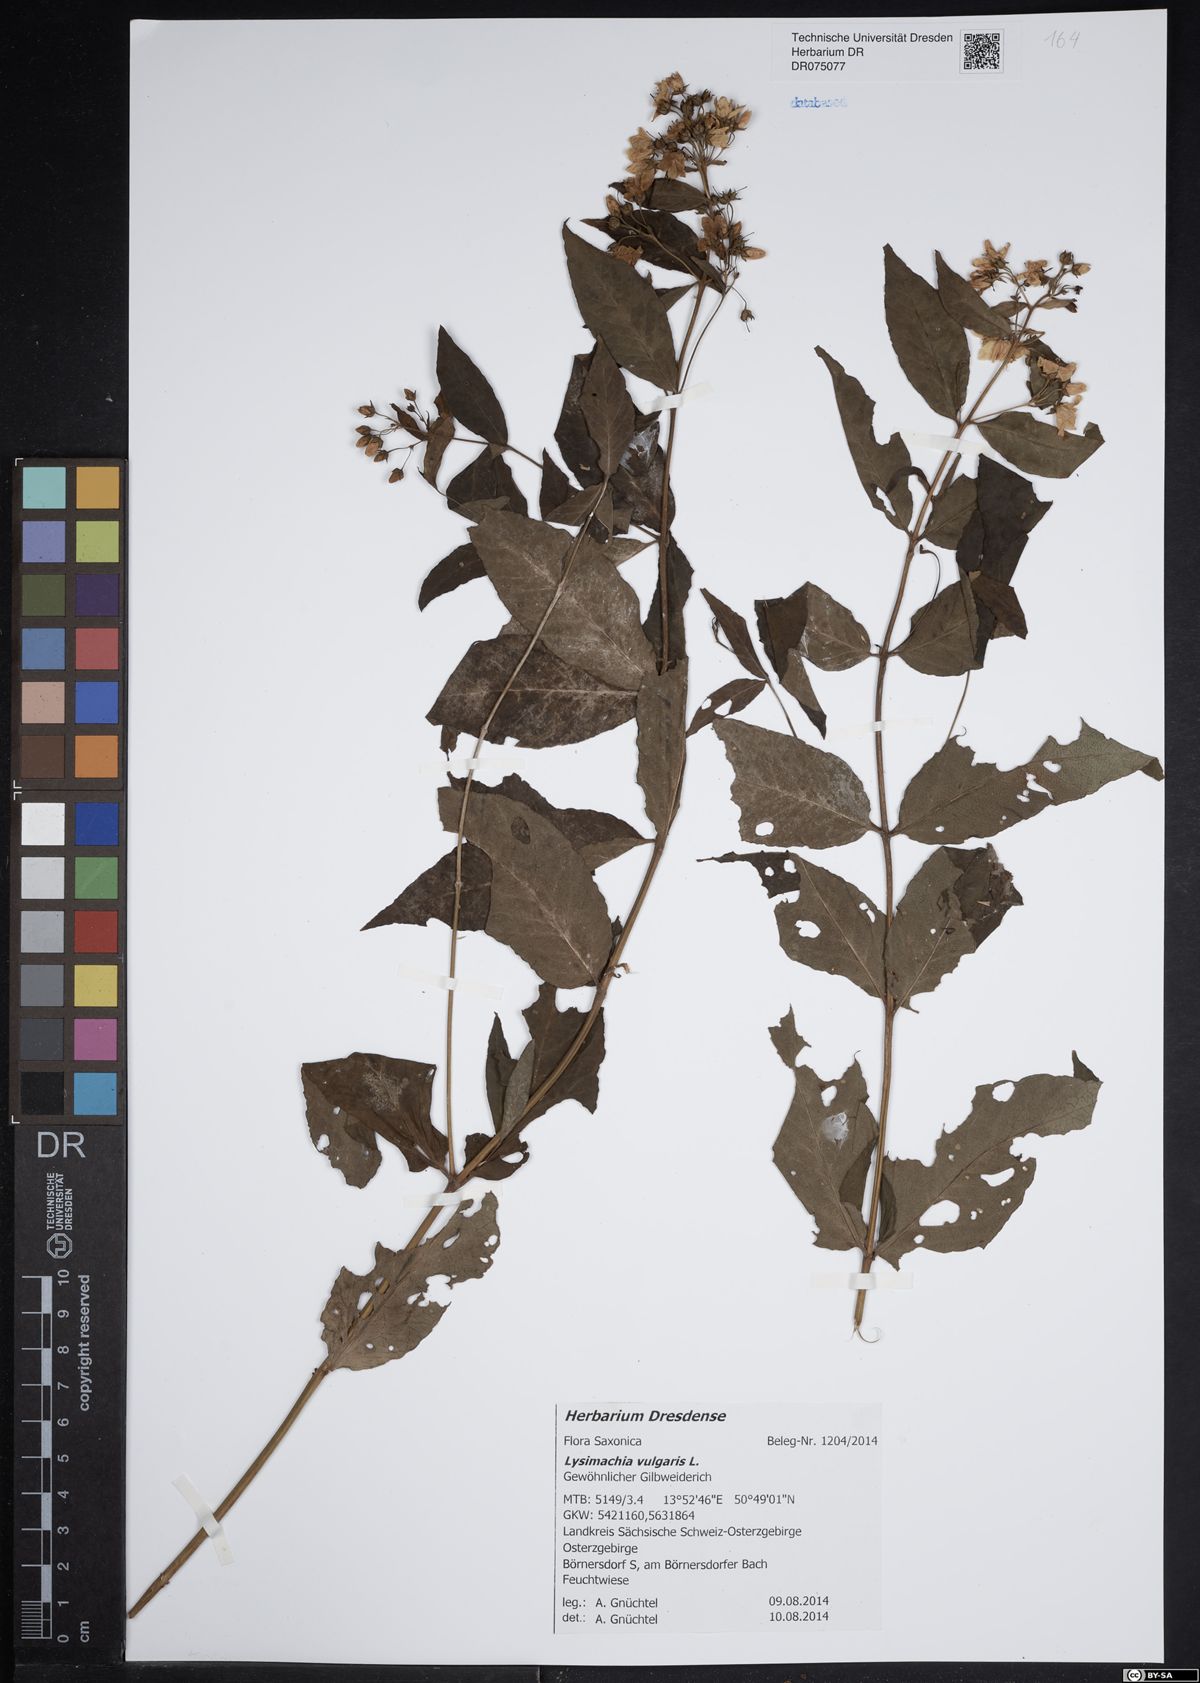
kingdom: Plantae
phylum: Tracheophyta
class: Magnoliopsida
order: Ericales
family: Primulaceae
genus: Lysimachia
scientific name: Lysimachia vulgaris
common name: Yellow loosestrife
